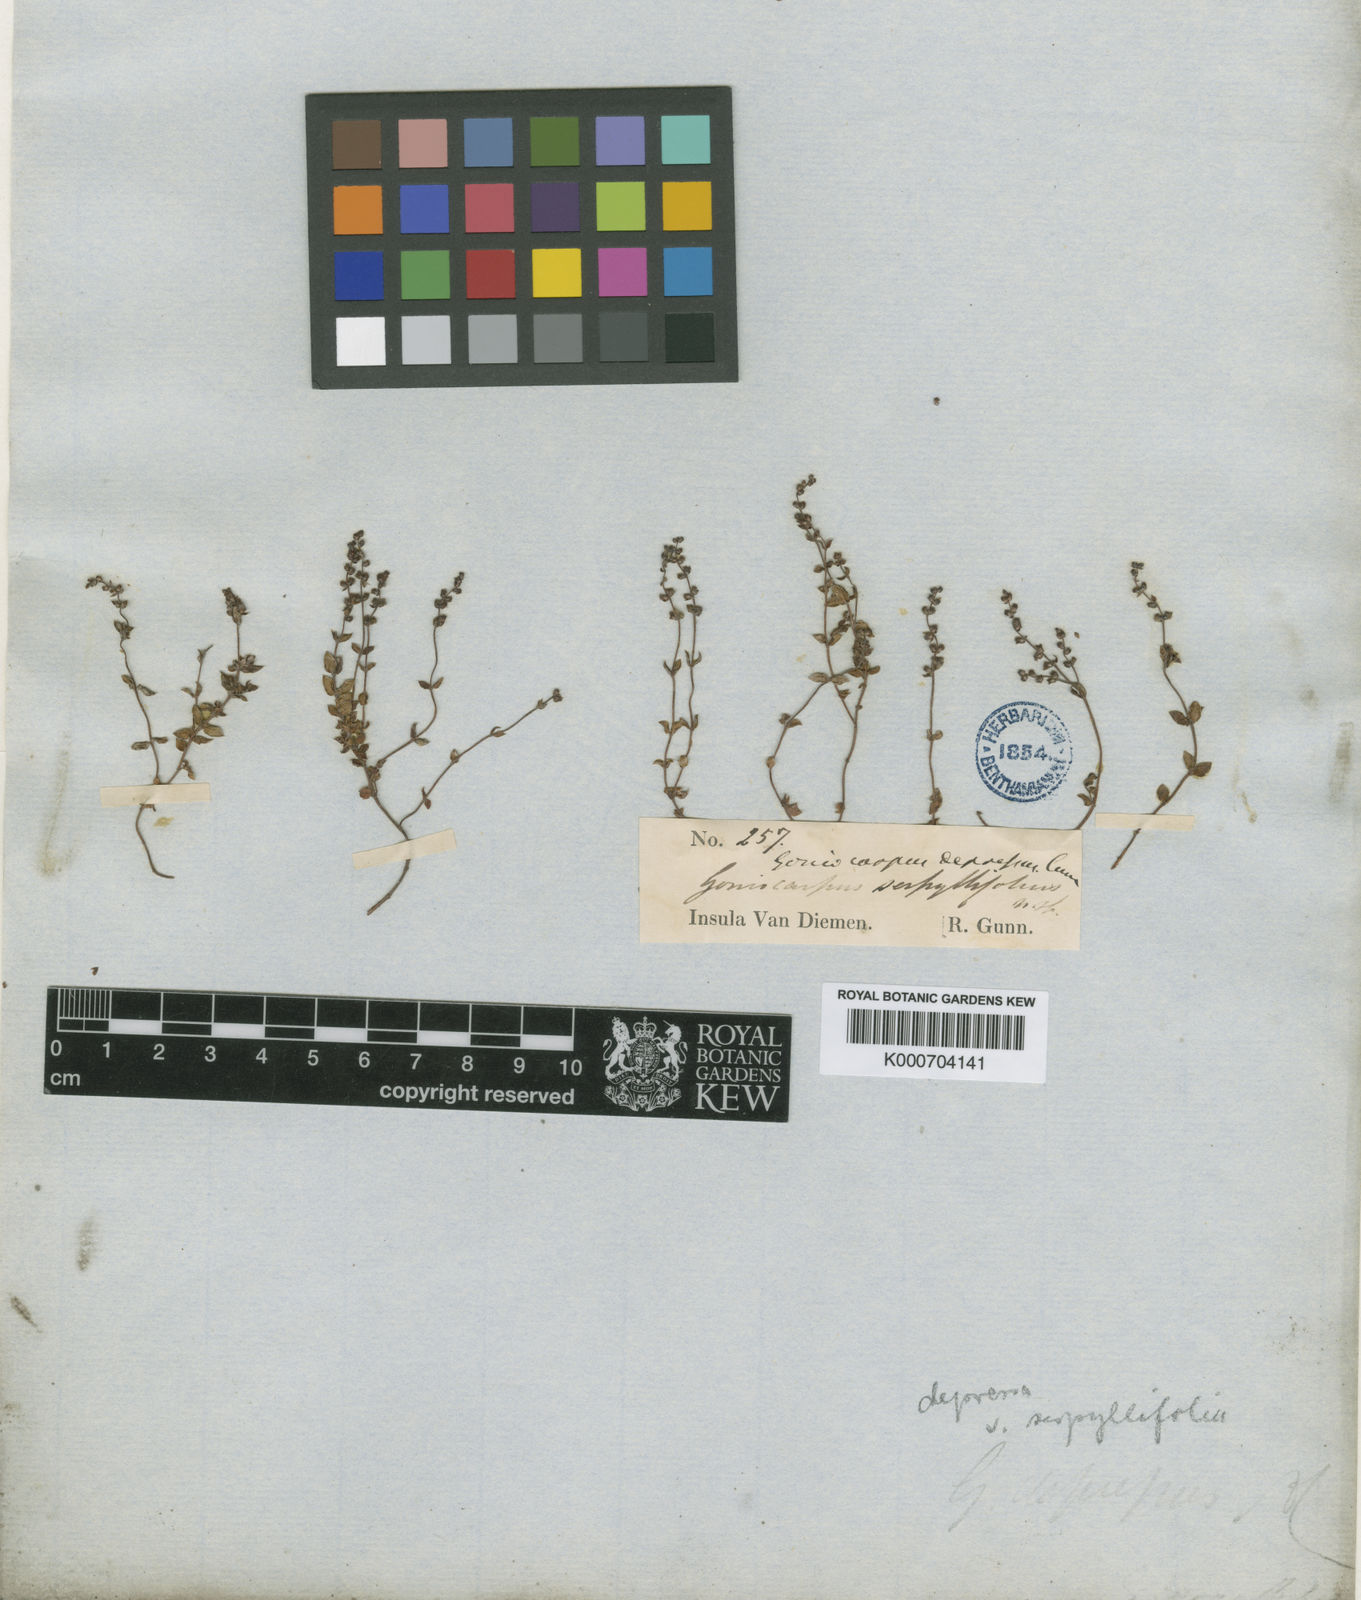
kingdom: Plantae
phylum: Tracheophyta
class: Magnoliopsida
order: Saxifragales
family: Haloragaceae
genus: Gonocarpus
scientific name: Gonocarpus serpyllifolius
